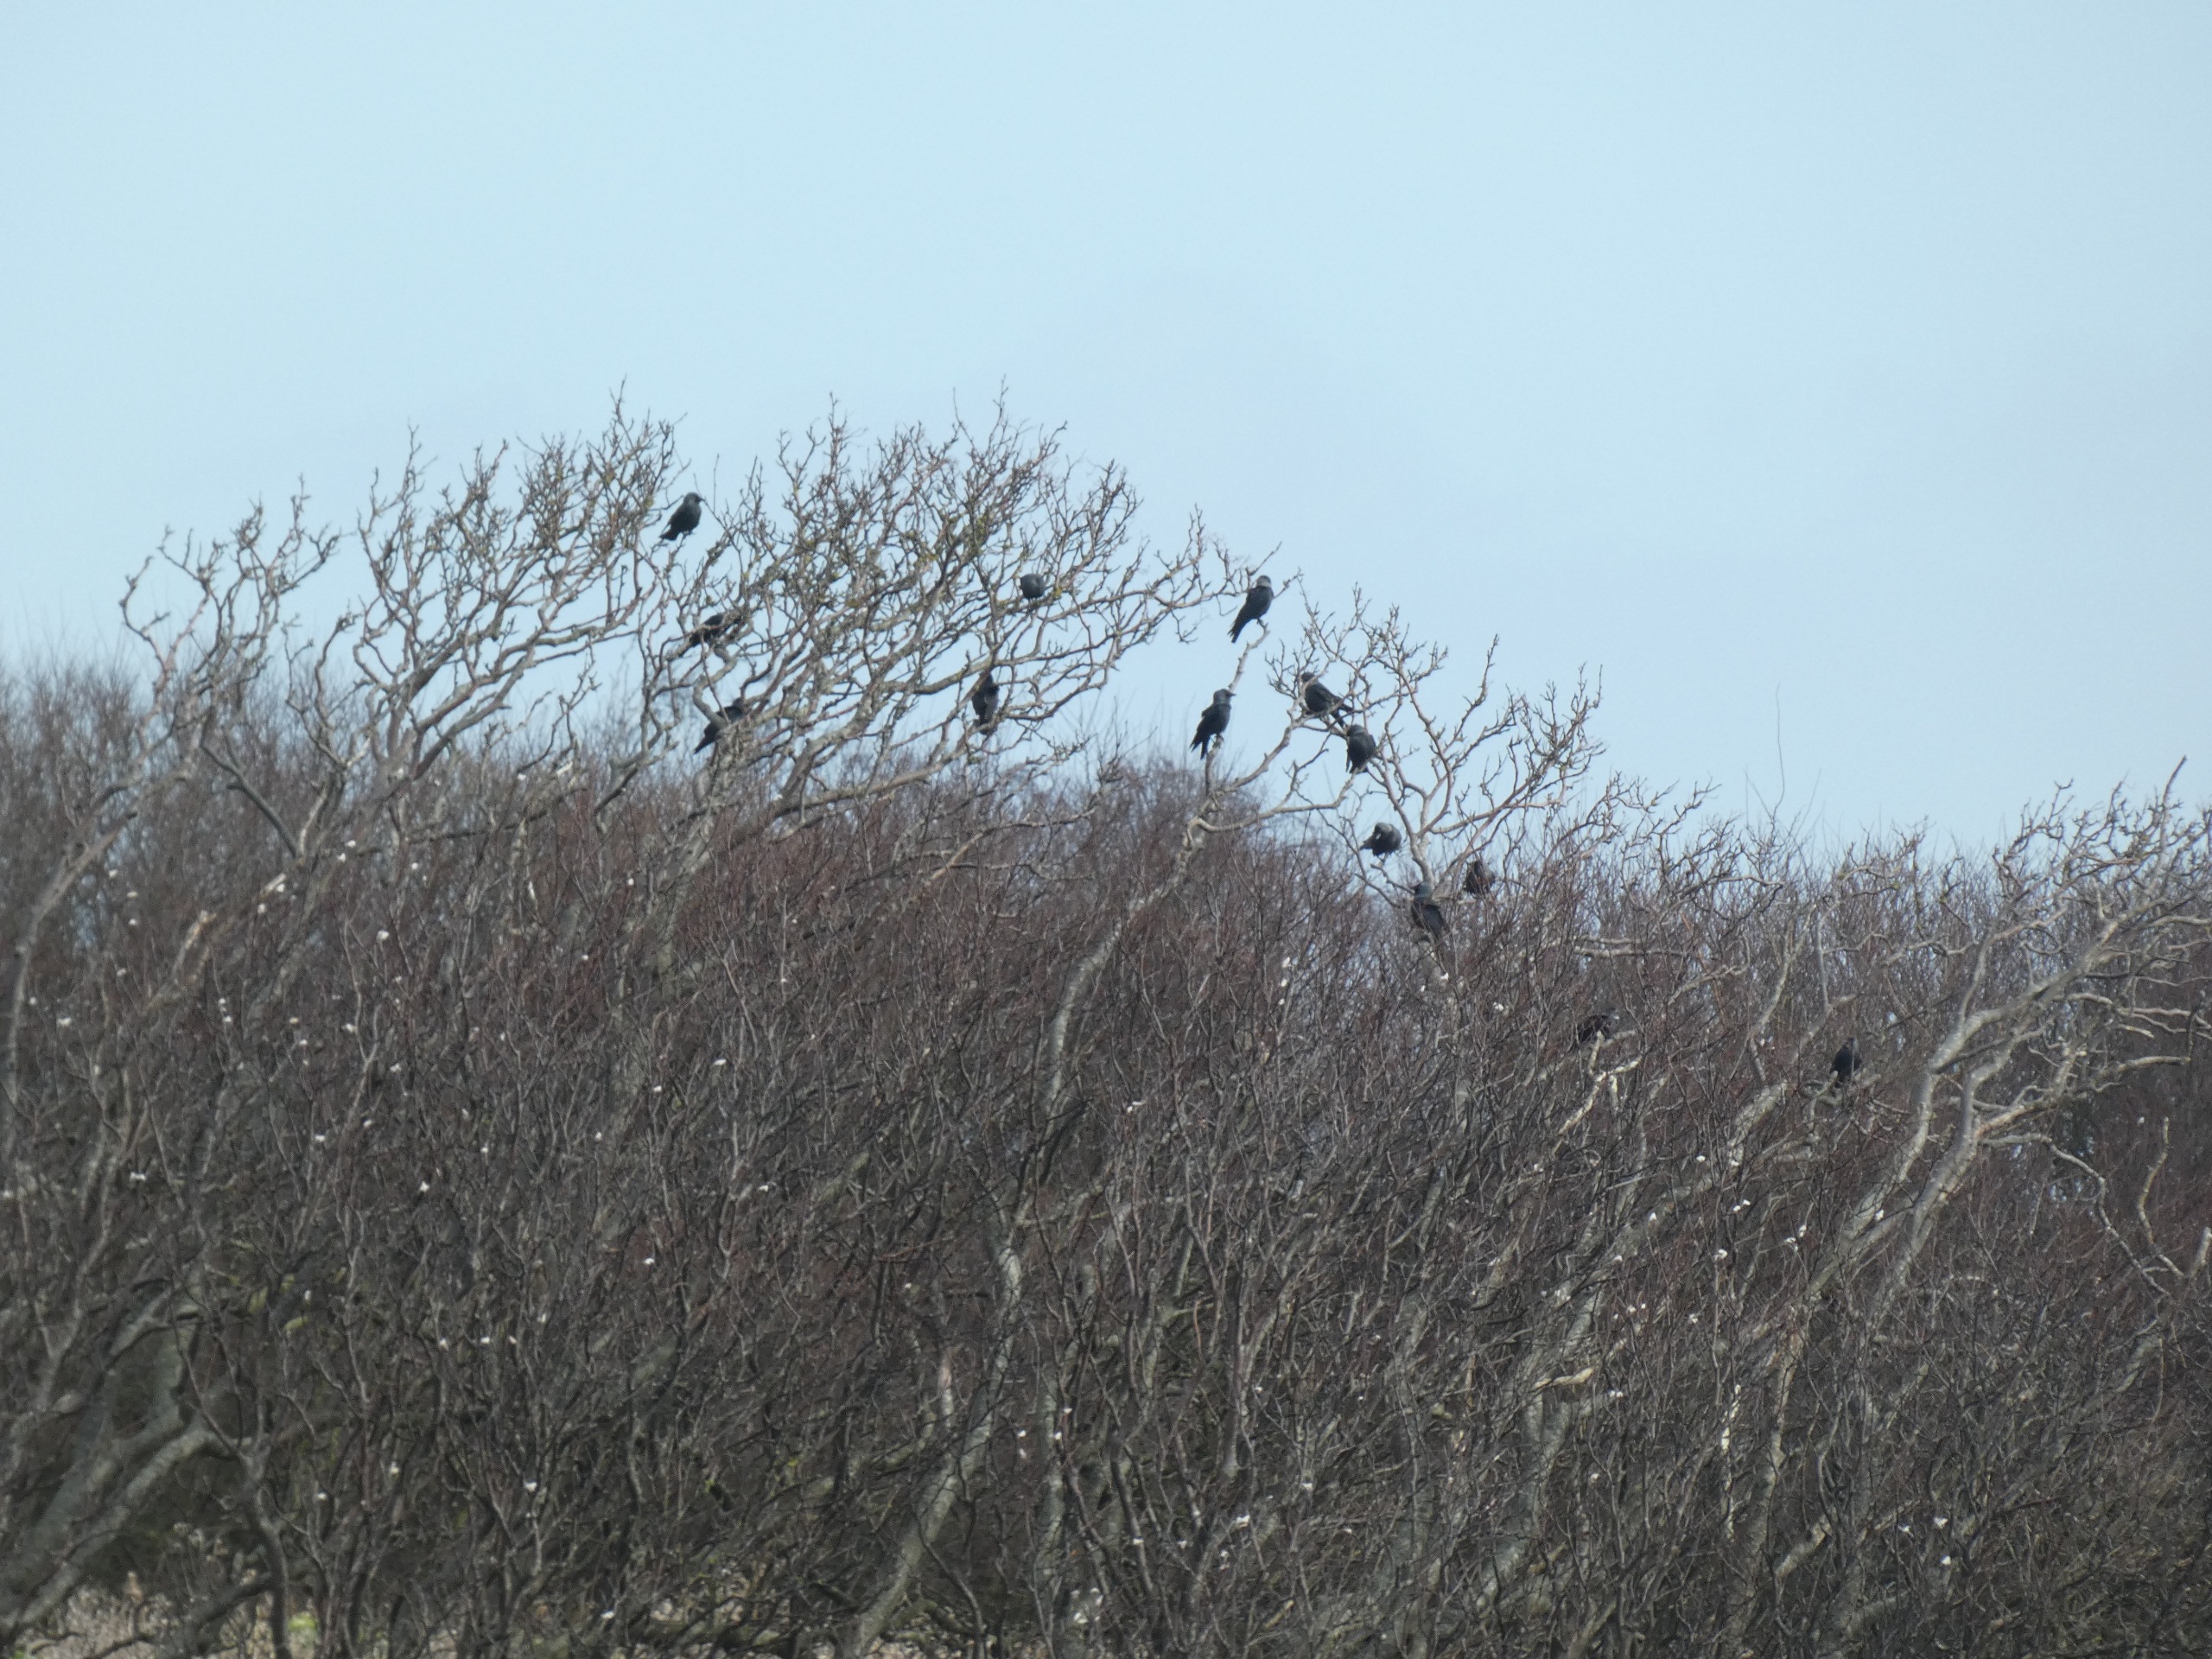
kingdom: Animalia
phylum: Chordata
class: Aves
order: Passeriformes
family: Corvidae
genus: Coloeus
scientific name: Coloeus monedula
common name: Allike
